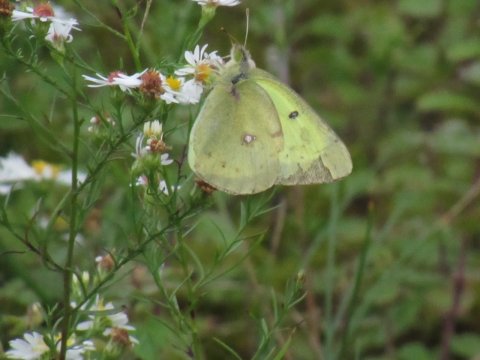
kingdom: Animalia
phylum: Arthropoda
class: Insecta
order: Lepidoptera
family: Pieridae
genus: Colias
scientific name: Colias philodice
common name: Clouded Sulphur
